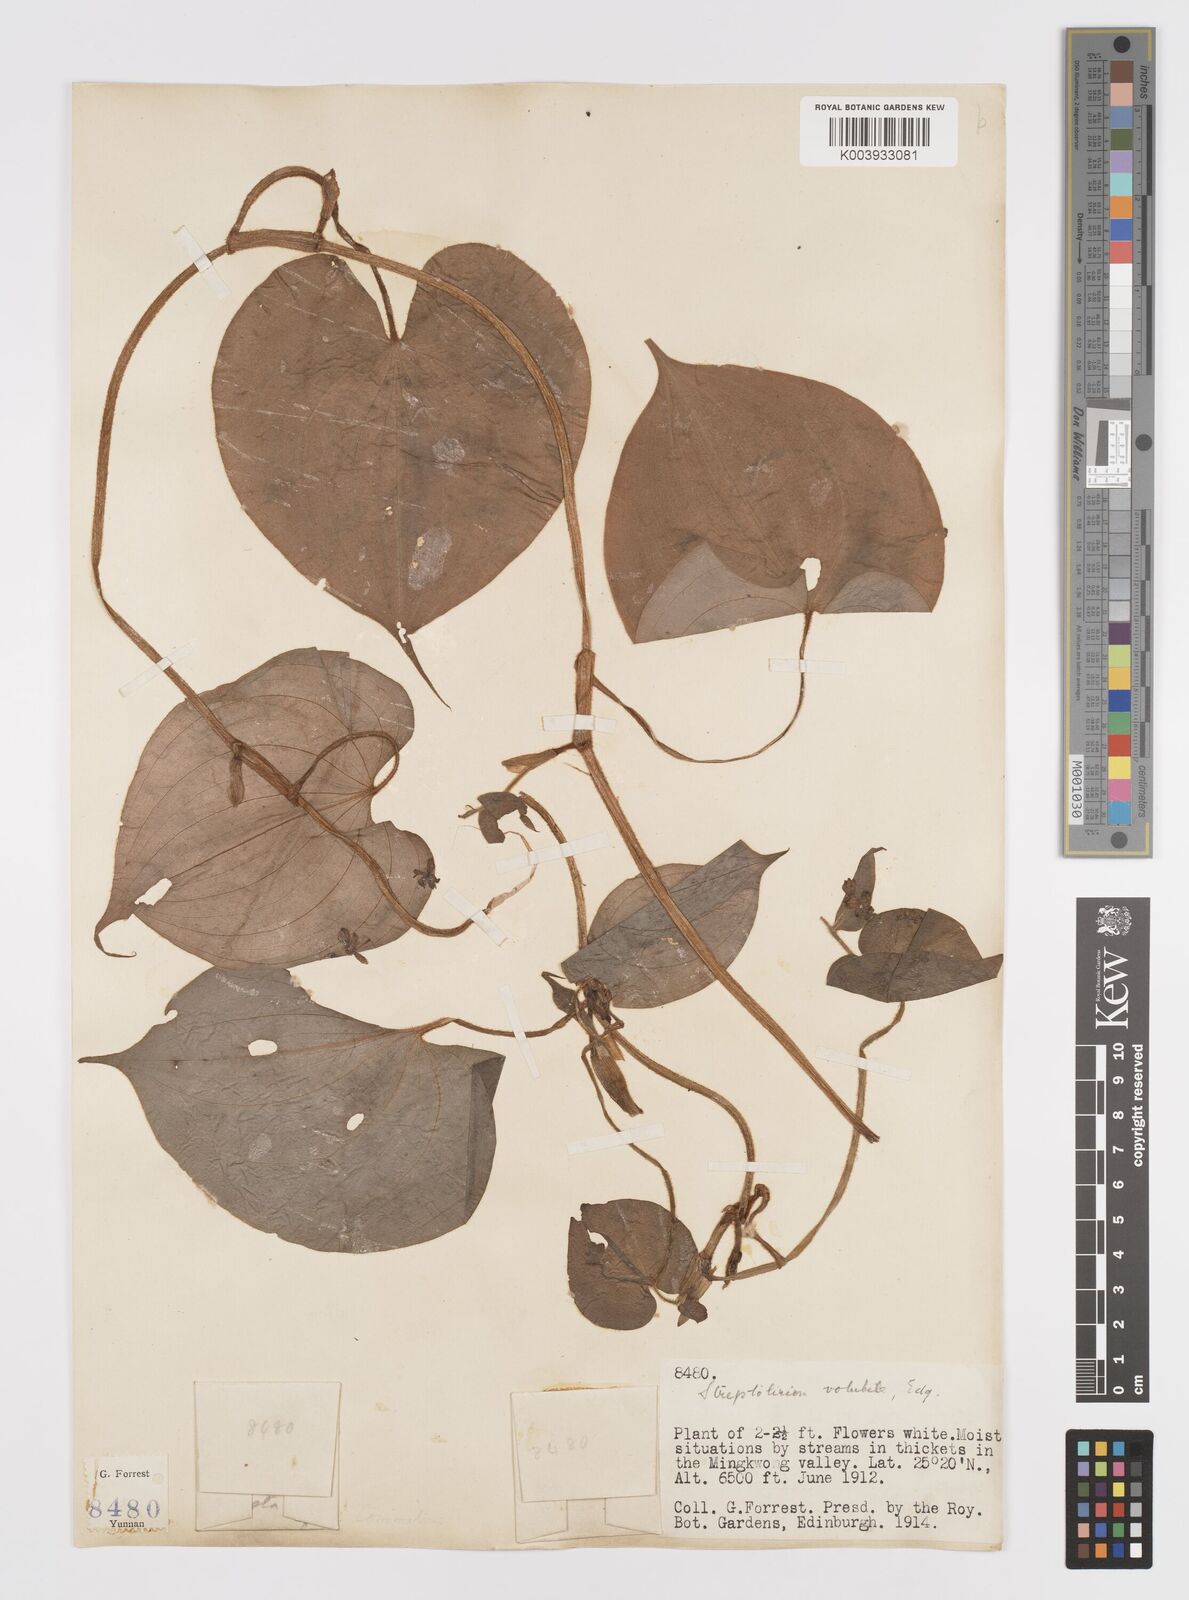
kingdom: Plantae
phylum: Tracheophyta
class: Liliopsida
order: Commelinales
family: Commelinaceae
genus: Streptolirion
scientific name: Streptolirion volubile
